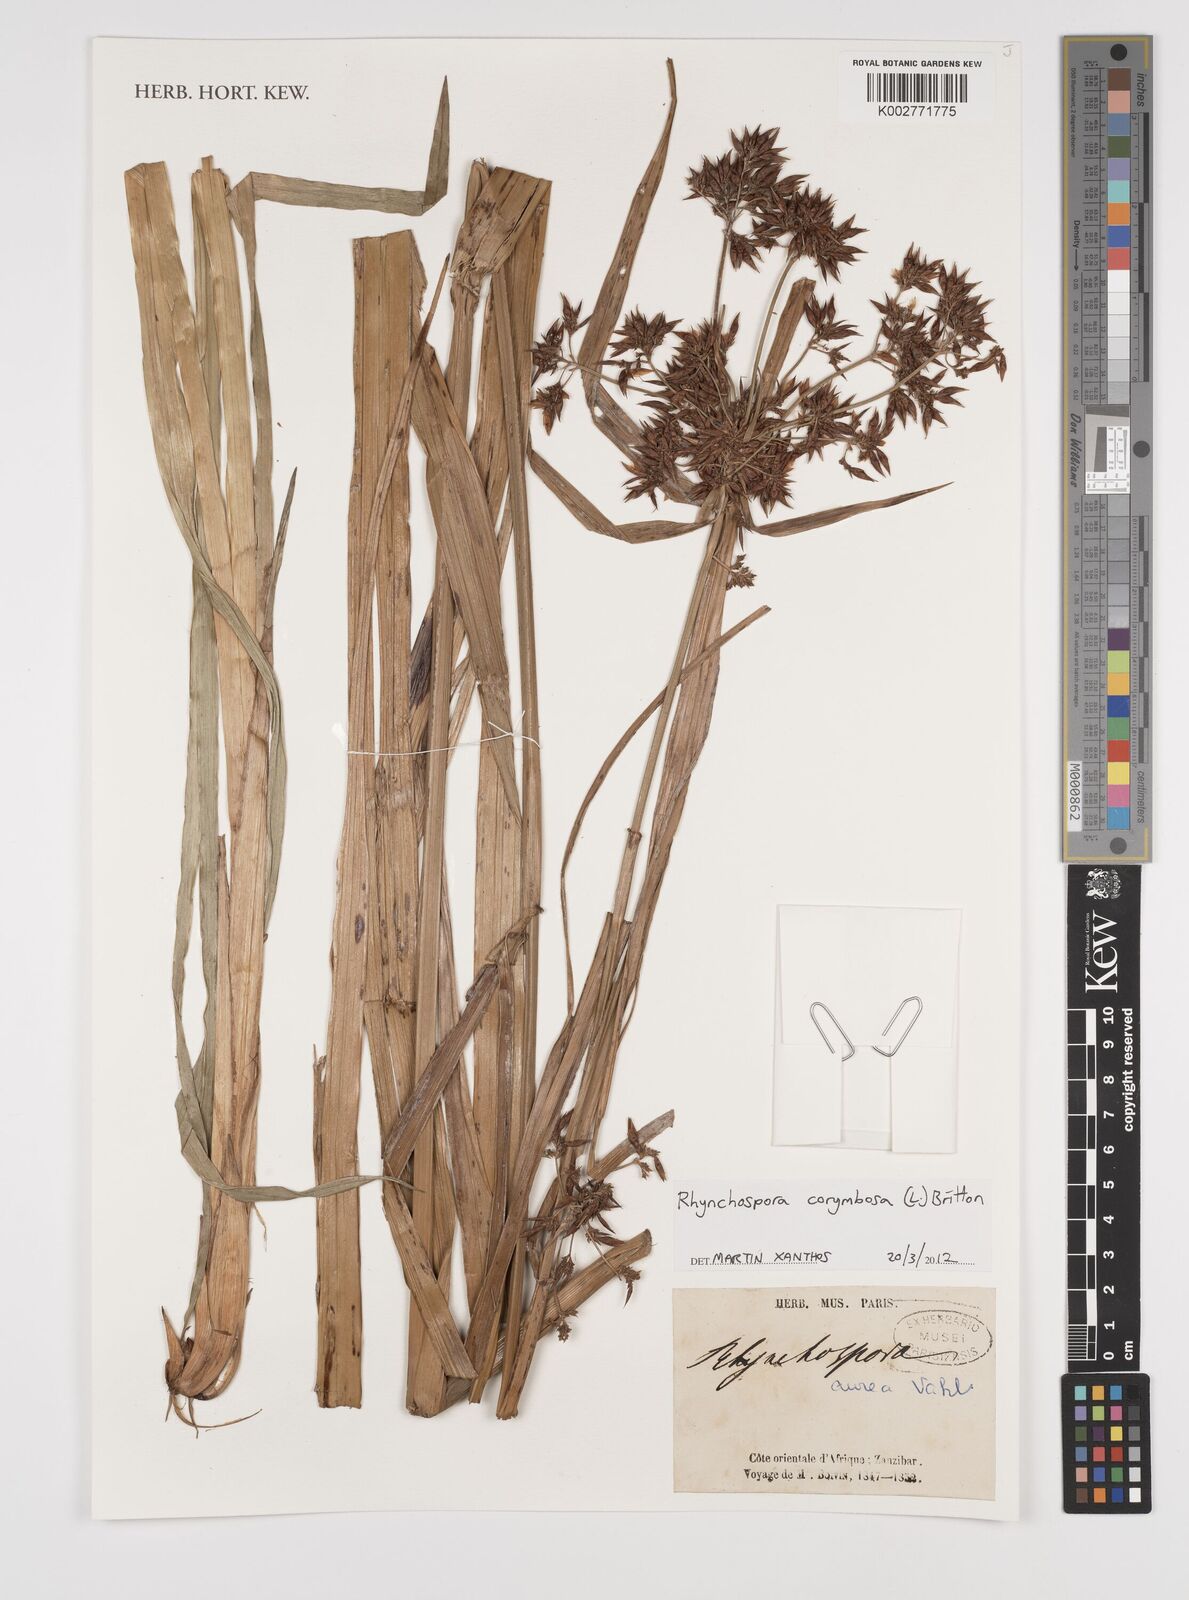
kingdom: Plantae
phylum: Tracheophyta
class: Liliopsida
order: Poales
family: Cyperaceae
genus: Rhynchospora
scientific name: Rhynchospora corymbosa
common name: Golden beak sedge
